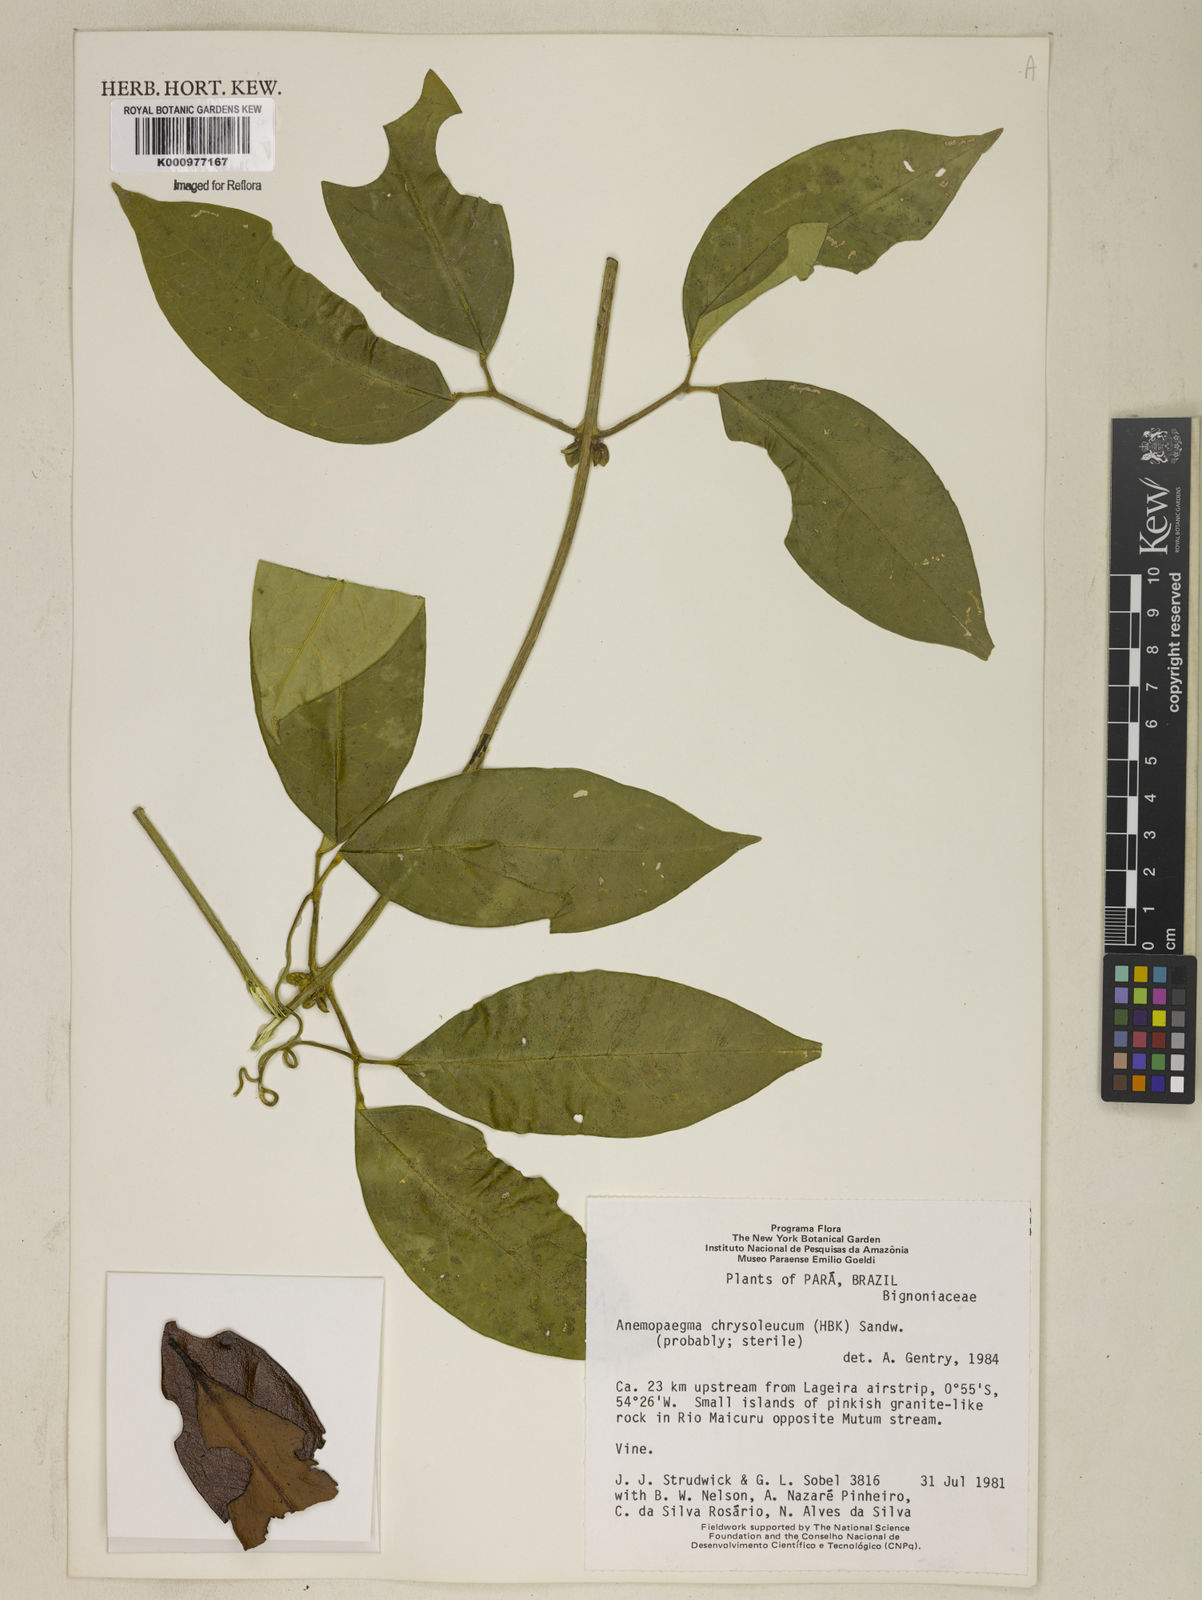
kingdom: Plantae
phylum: Tracheophyta
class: Magnoliopsida
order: Lamiales
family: Bignoniaceae
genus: Anemopaegma
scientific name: Anemopaegma
